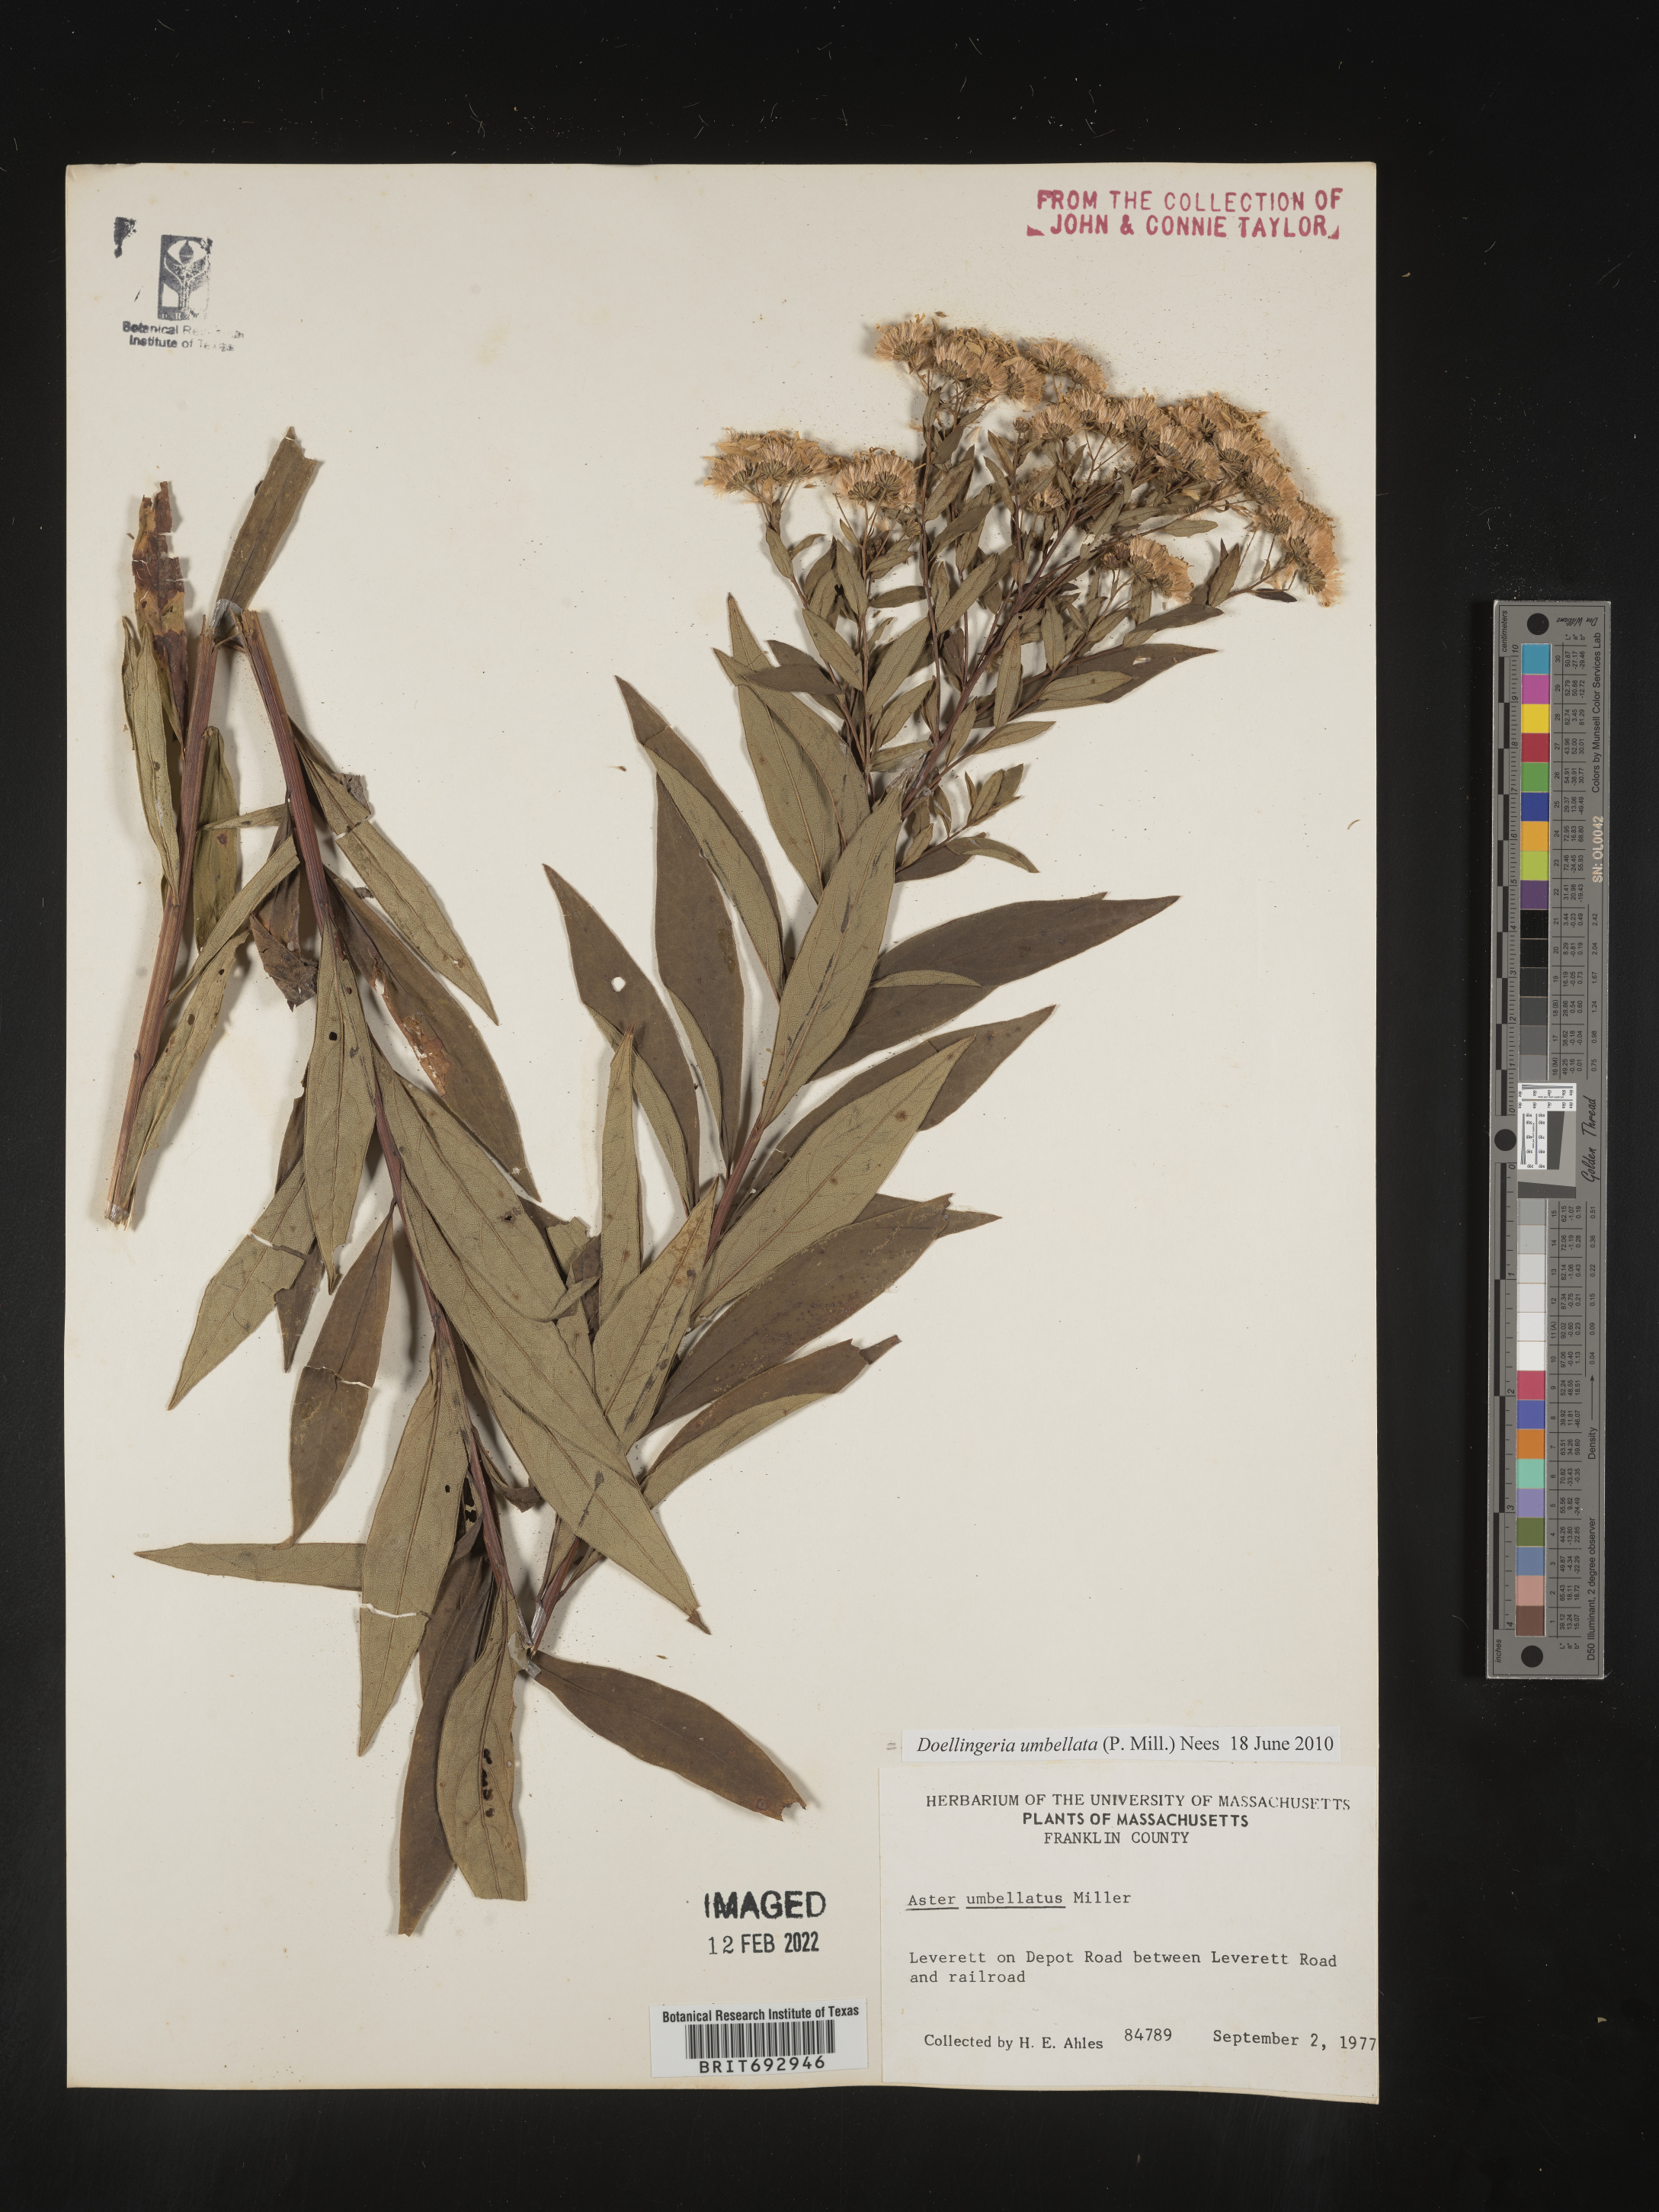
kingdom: Plantae
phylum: Tracheophyta
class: Magnoliopsida
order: Asterales
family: Asteraceae
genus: Doellingeria
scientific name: Doellingeria umbellata
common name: Flat-top white aster
